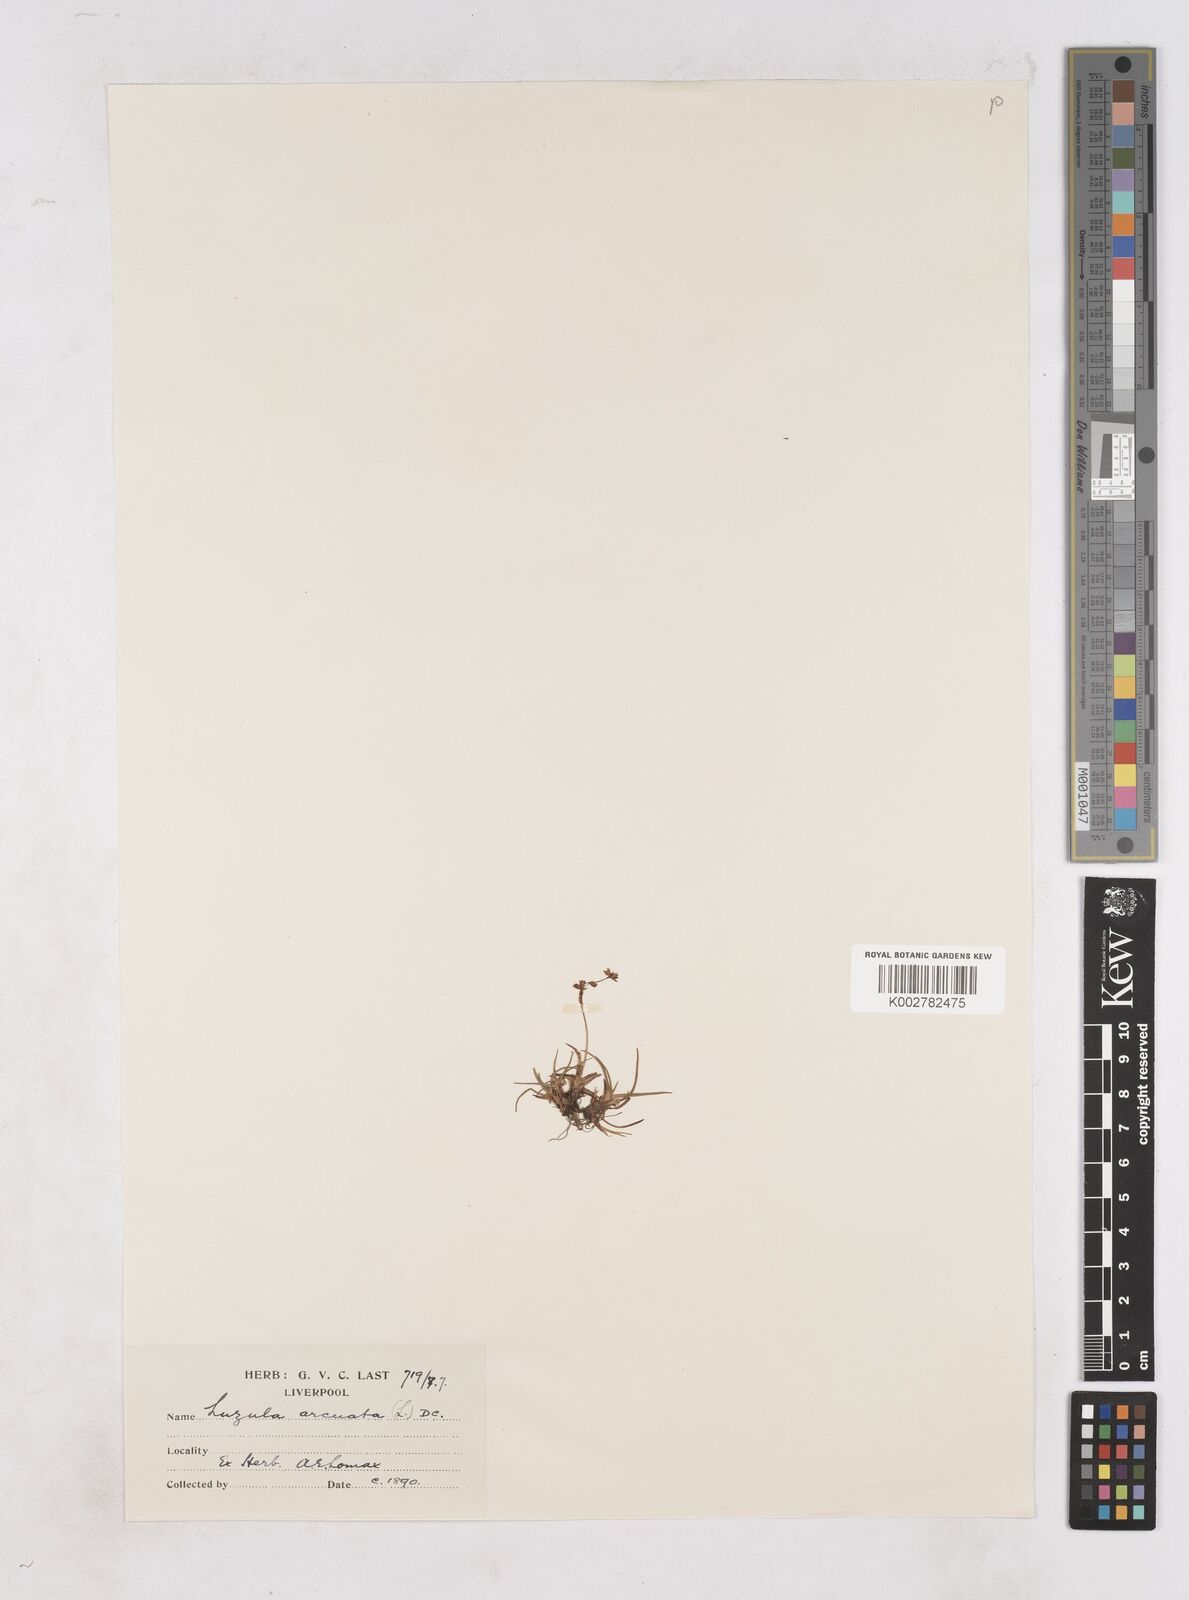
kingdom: Plantae
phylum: Tracheophyta
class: Liliopsida
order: Poales
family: Juncaceae
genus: Luzula
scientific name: Luzula arcuata
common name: Curved wood-rush
